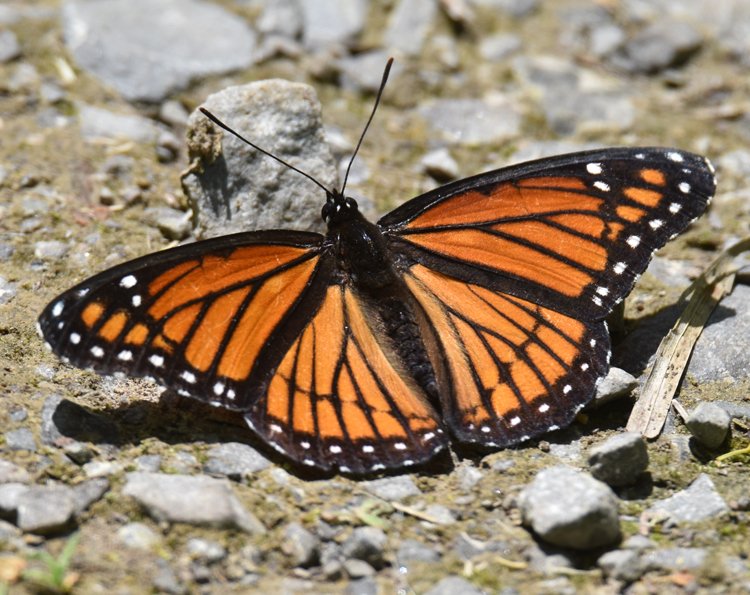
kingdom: Animalia
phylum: Arthropoda
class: Insecta
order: Lepidoptera
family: Nymphalidae
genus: Limenitis
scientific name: Limenitis archippus
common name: Viceroy
